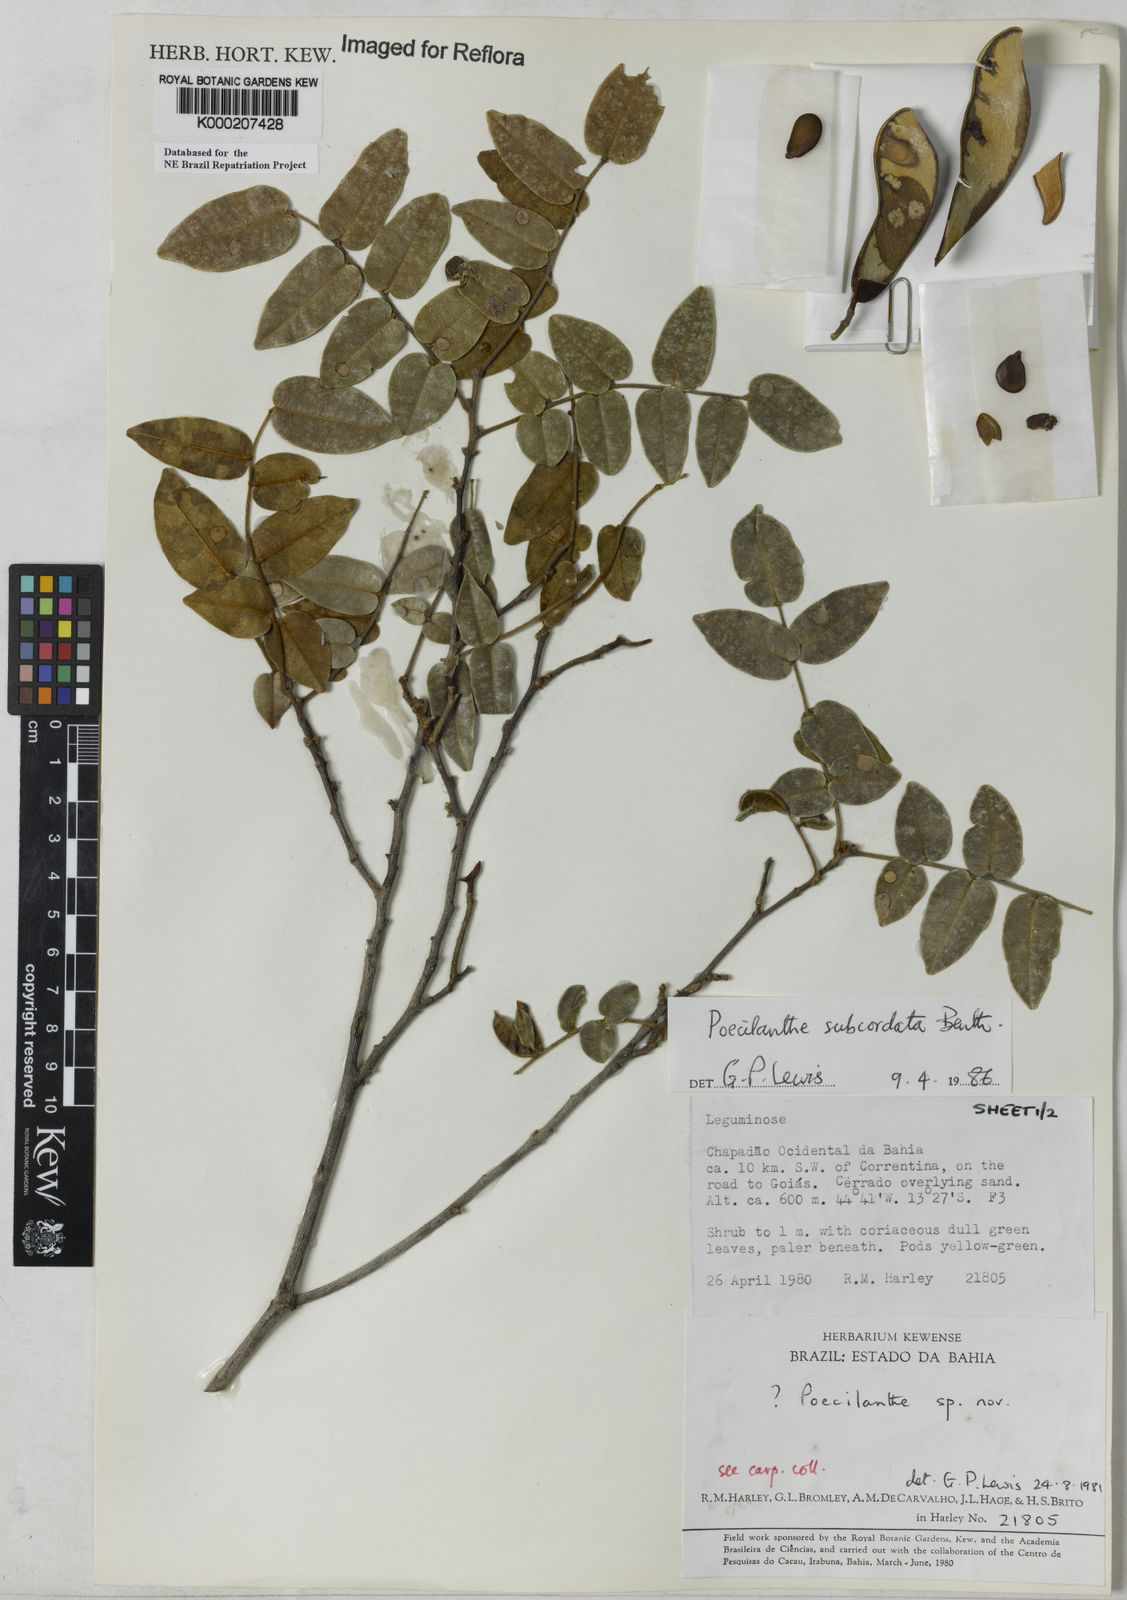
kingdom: Plantae
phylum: Tracheophyta
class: Magnoliopsida
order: Fabales
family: Fabaceae
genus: Poecilanthe
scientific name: Poecilanthe subcordata
